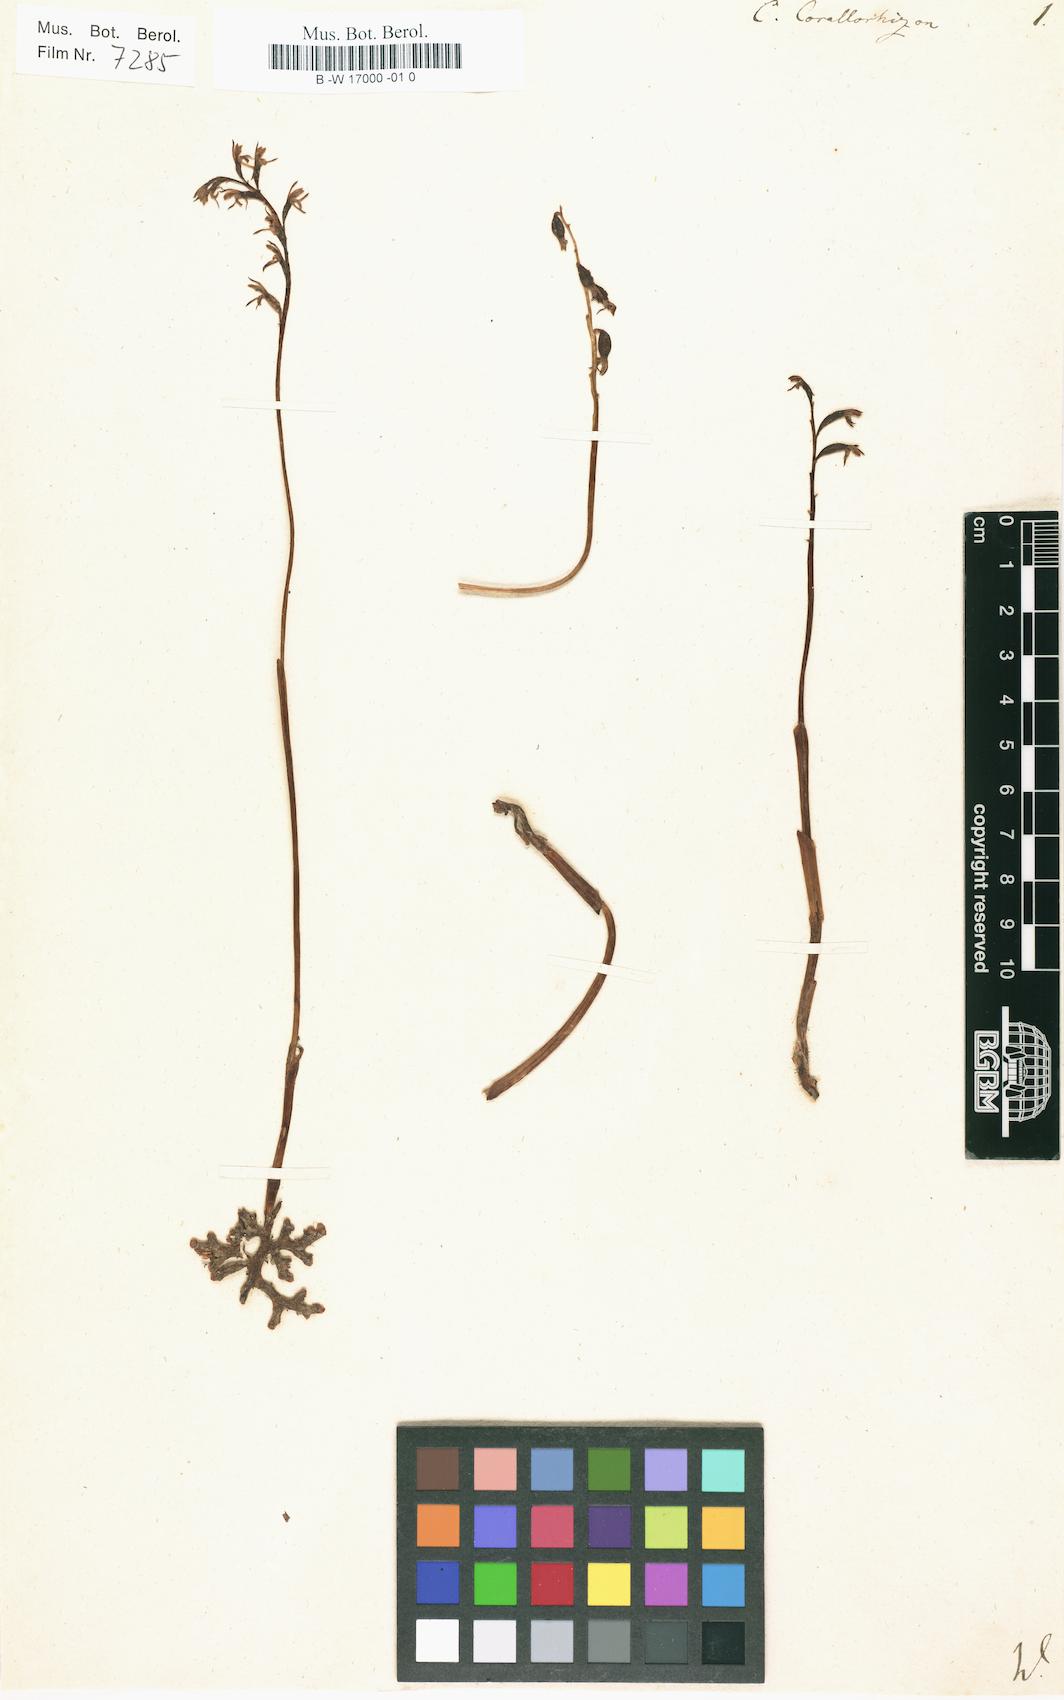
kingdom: Plantae
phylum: Tracheophyta
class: Liliopsida
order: Asparagales
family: Orchidaceae
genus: Corallorhiza
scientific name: Corallorhiza trifida
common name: Yellow coralroot
